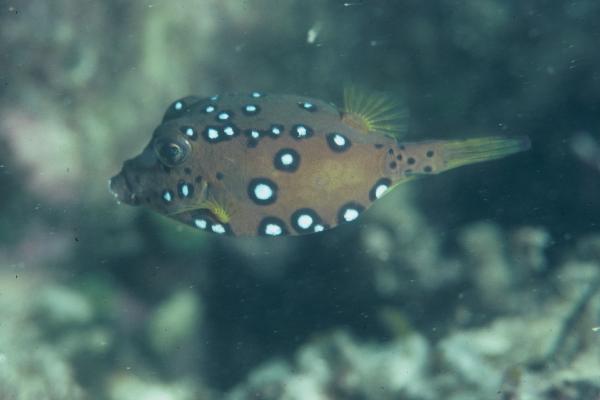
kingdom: Animalia
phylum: Chordata
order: Tetraodontiformes
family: Ostraciidae
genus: Ostracion
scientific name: Ostracion cubicus
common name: Cube trunkfish
